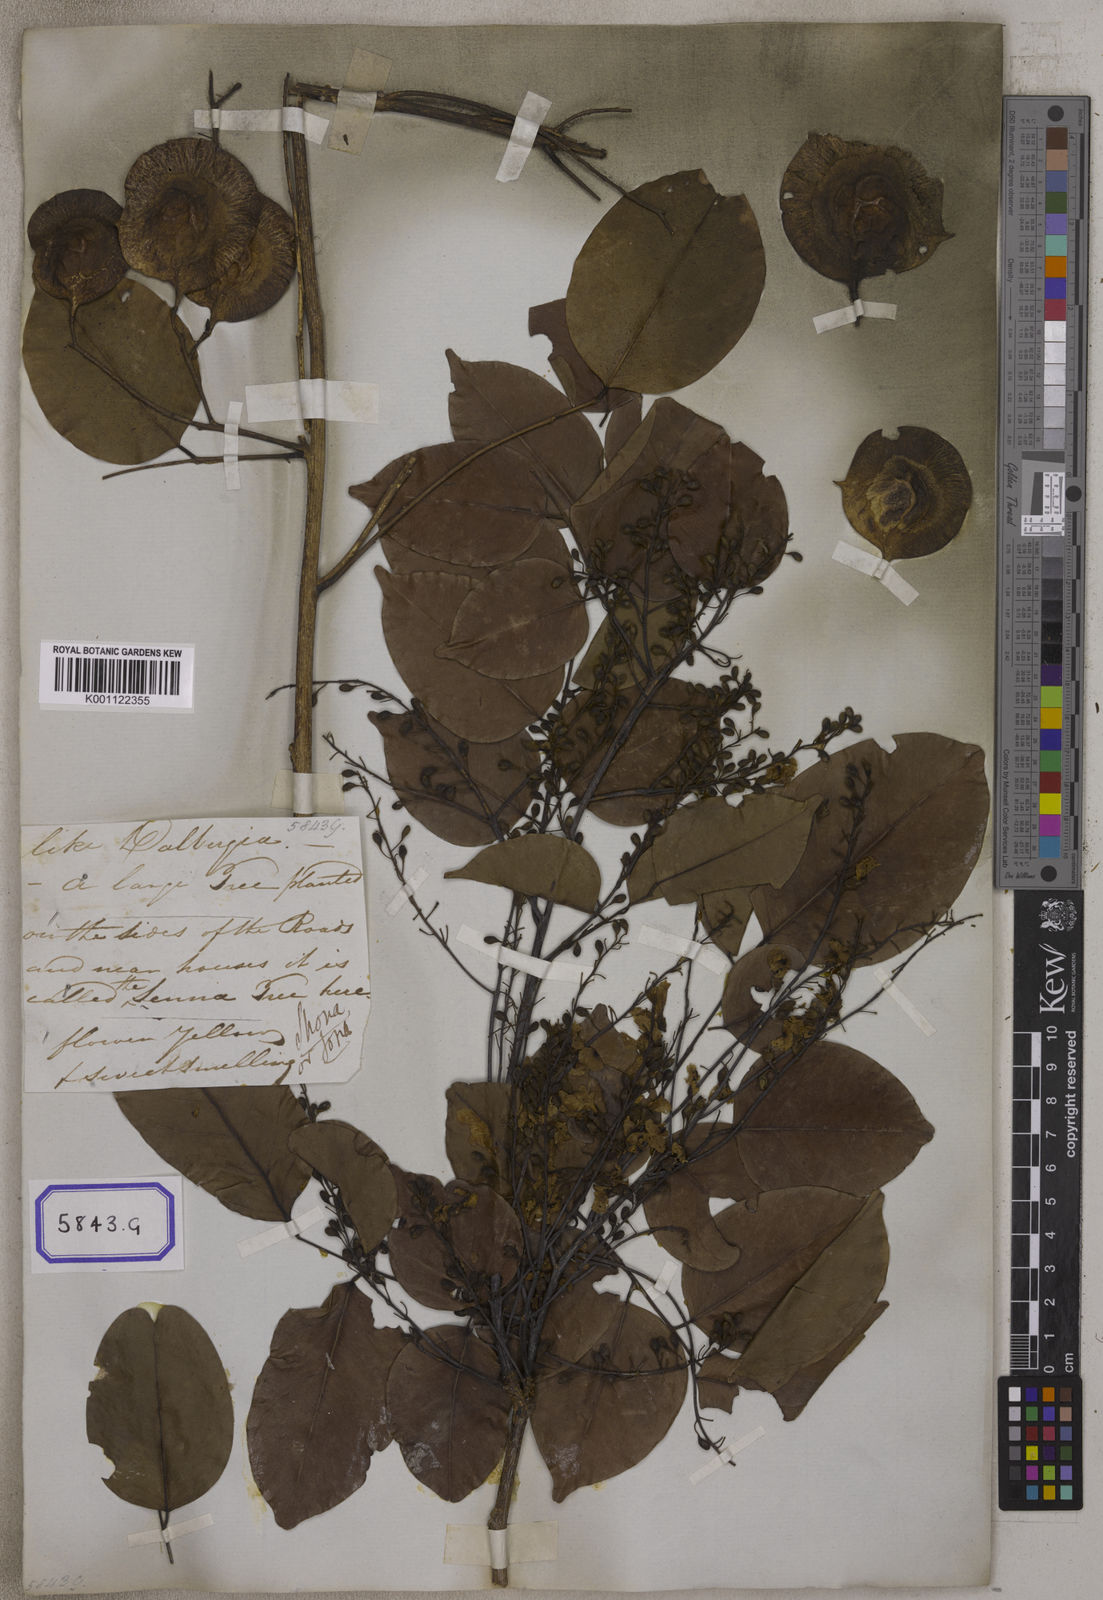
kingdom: Plantae
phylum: Tracheophyta
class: Magnoliopsida
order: Fabales
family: Fabaceae
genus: Pterocarpus
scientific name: Pterocarpus
